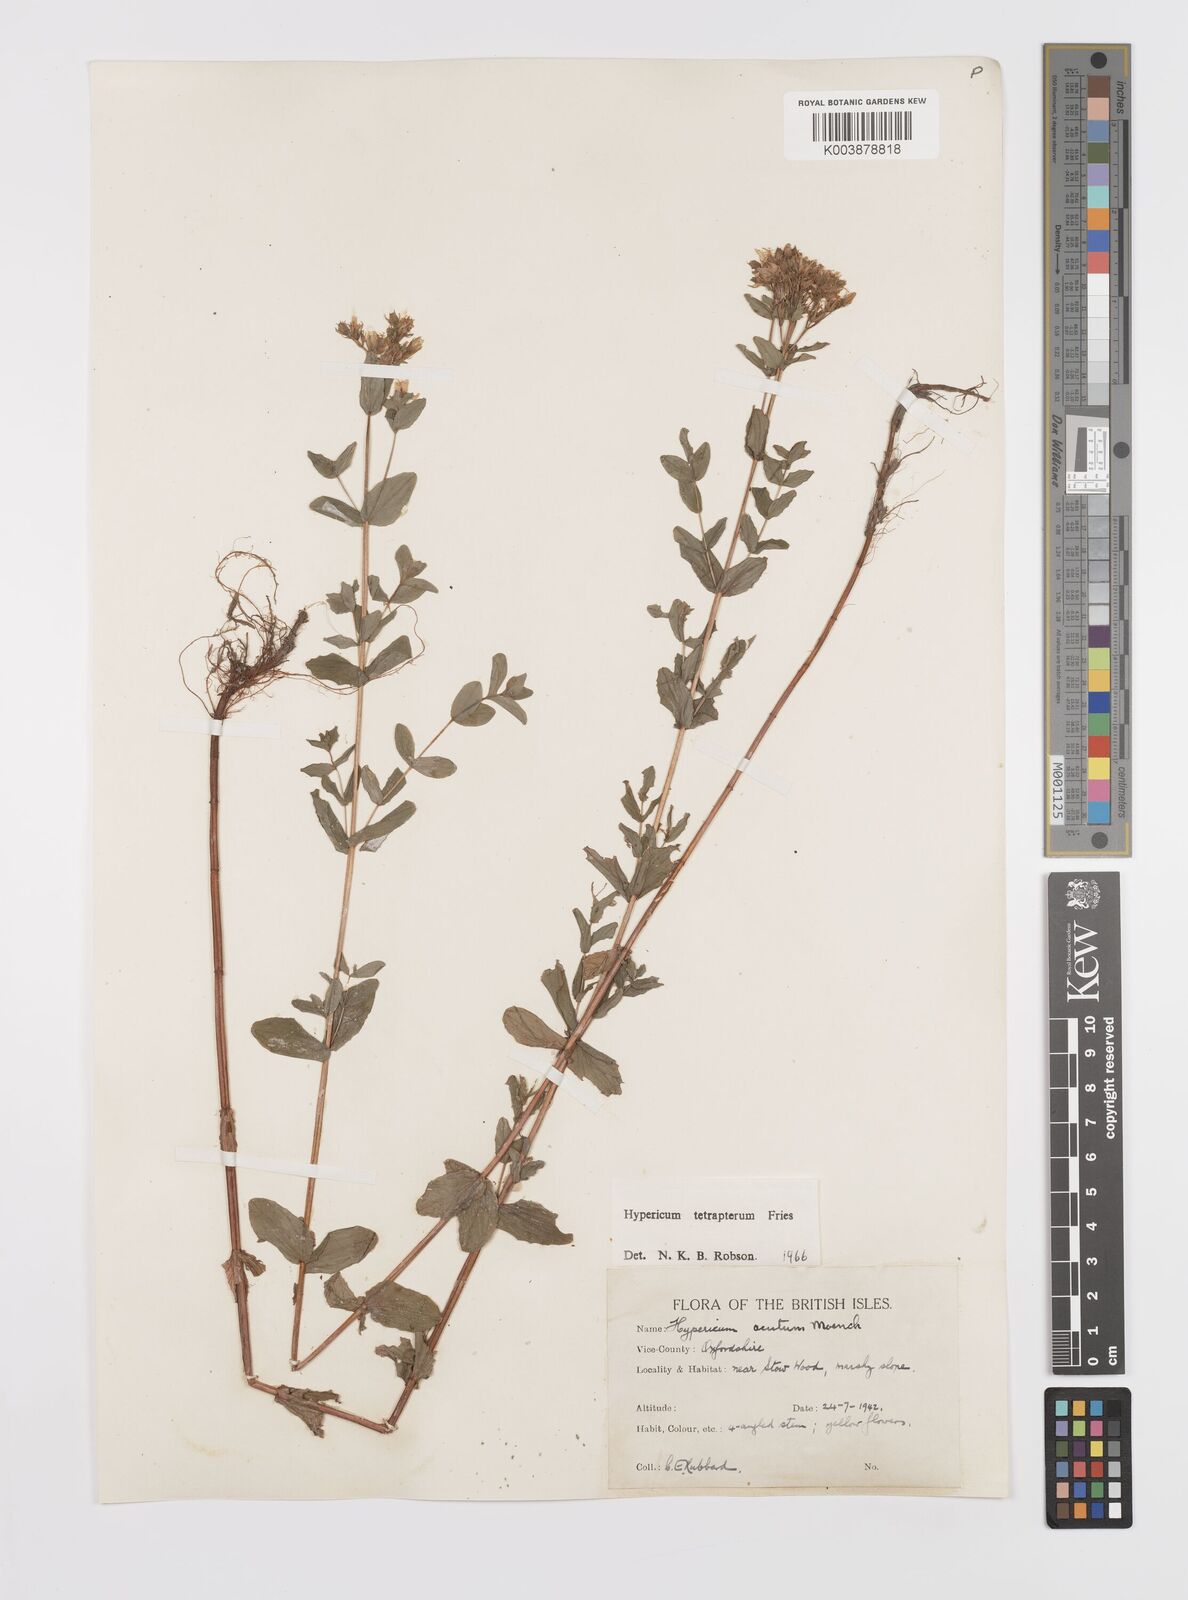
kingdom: Plantae
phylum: Tracheophyta
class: Magnoliopsida
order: Malpighiales
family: Hypericaceae
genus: Hypericum
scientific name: Hypericum tetrapterum
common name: Square-stalked st. john's-wort
